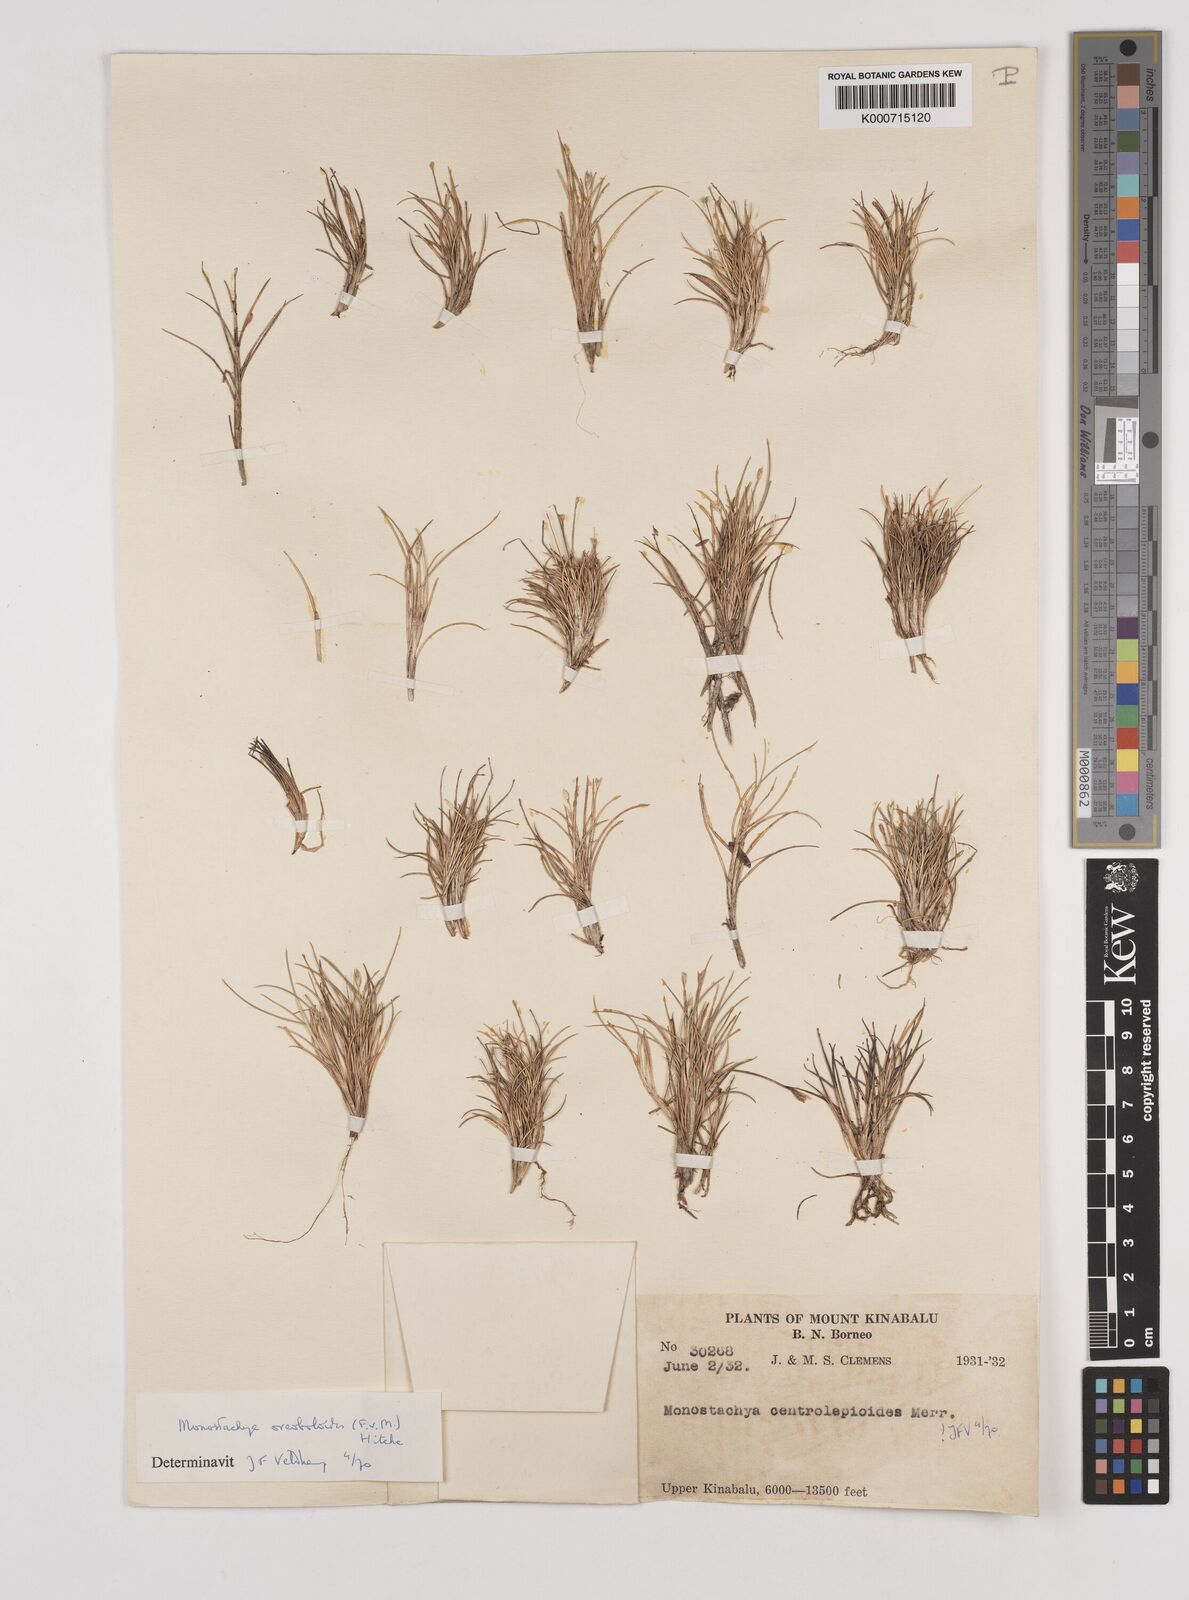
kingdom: Plantae
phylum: Tracheophyta
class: Liliopsida
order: Poales
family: Poaceae
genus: Rytidosperma
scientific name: Rytidosperma oreoboloides
